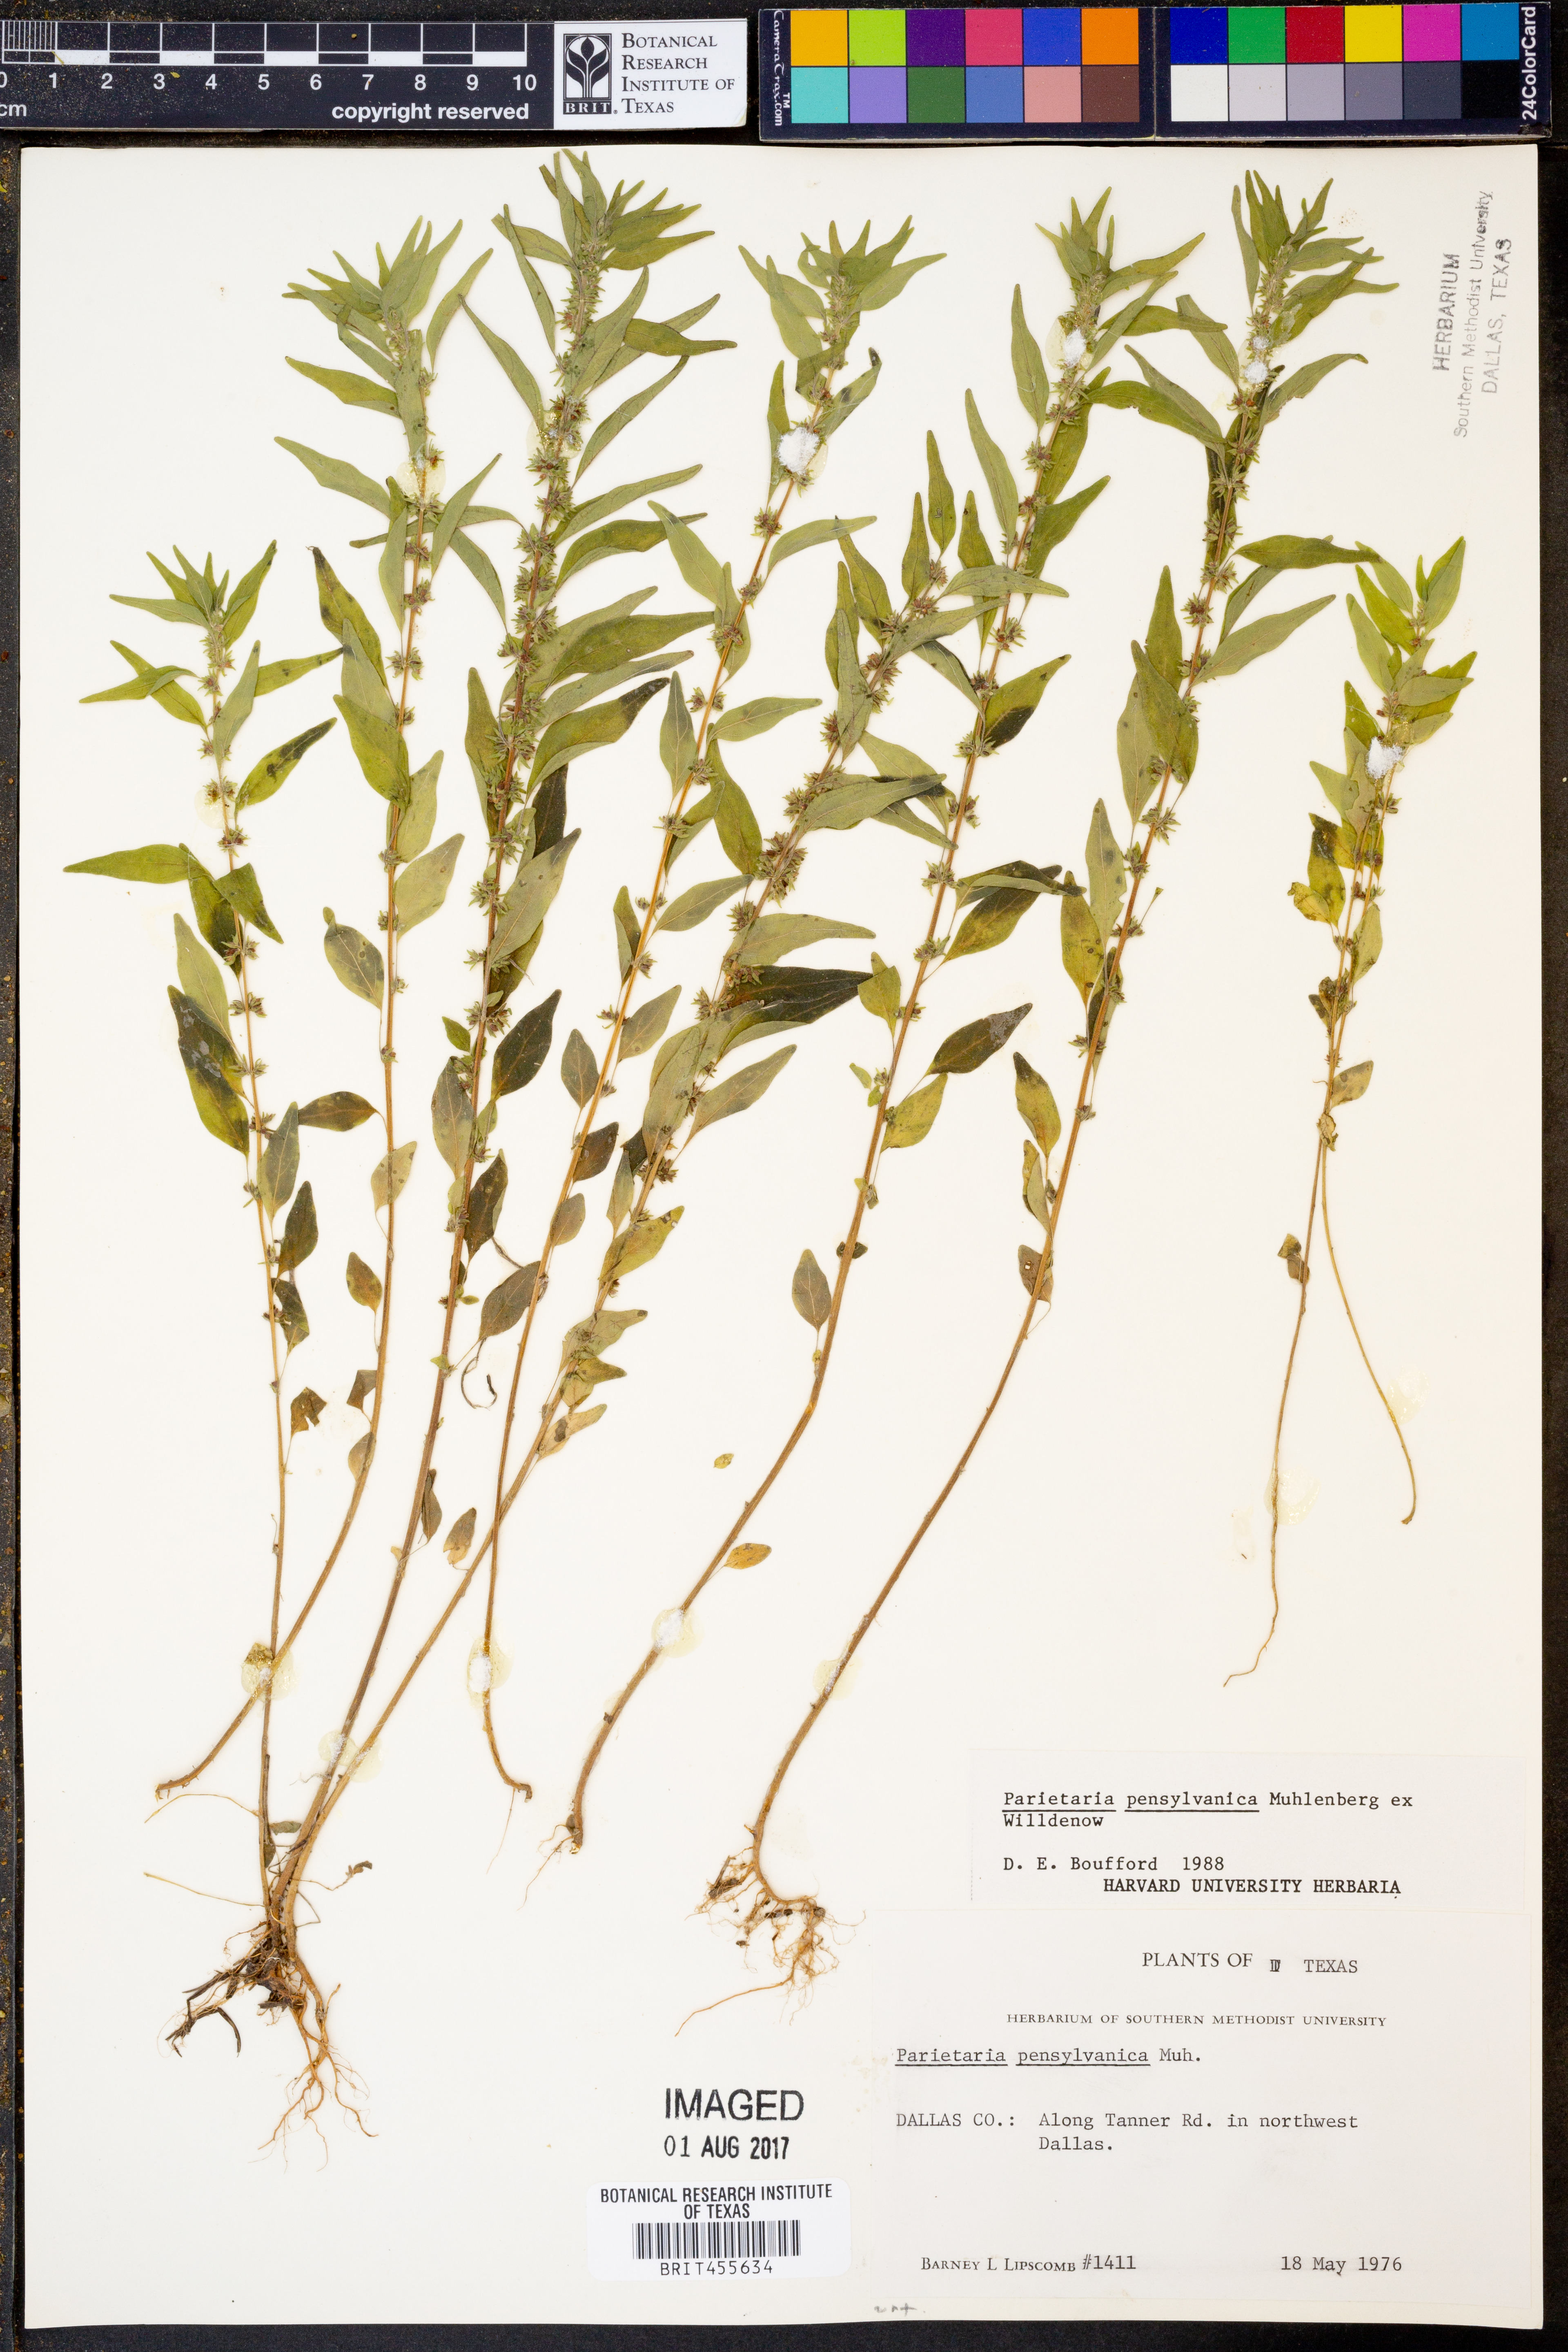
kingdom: Plantae
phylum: Tracheophyta
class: Magnoliopsida
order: Rosales
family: Urticaceae
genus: Parietaria
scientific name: Parietaria pensylvanica
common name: Pennsylvania pellitory
